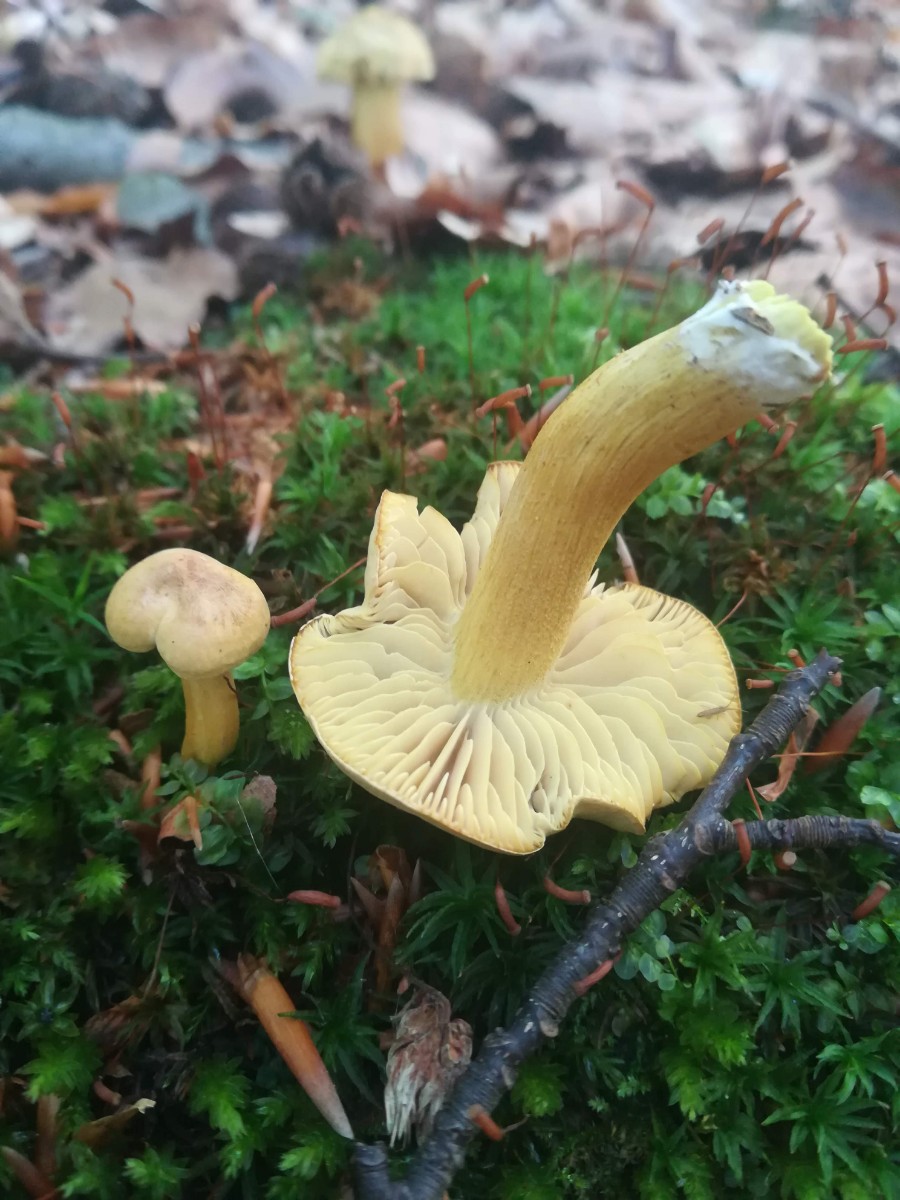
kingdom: Fungi
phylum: Basidiomycota
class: Agaricomycetes
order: Agaricales
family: Tricholomataceae
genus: Tricholoma
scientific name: Tricholoma sulphureum
